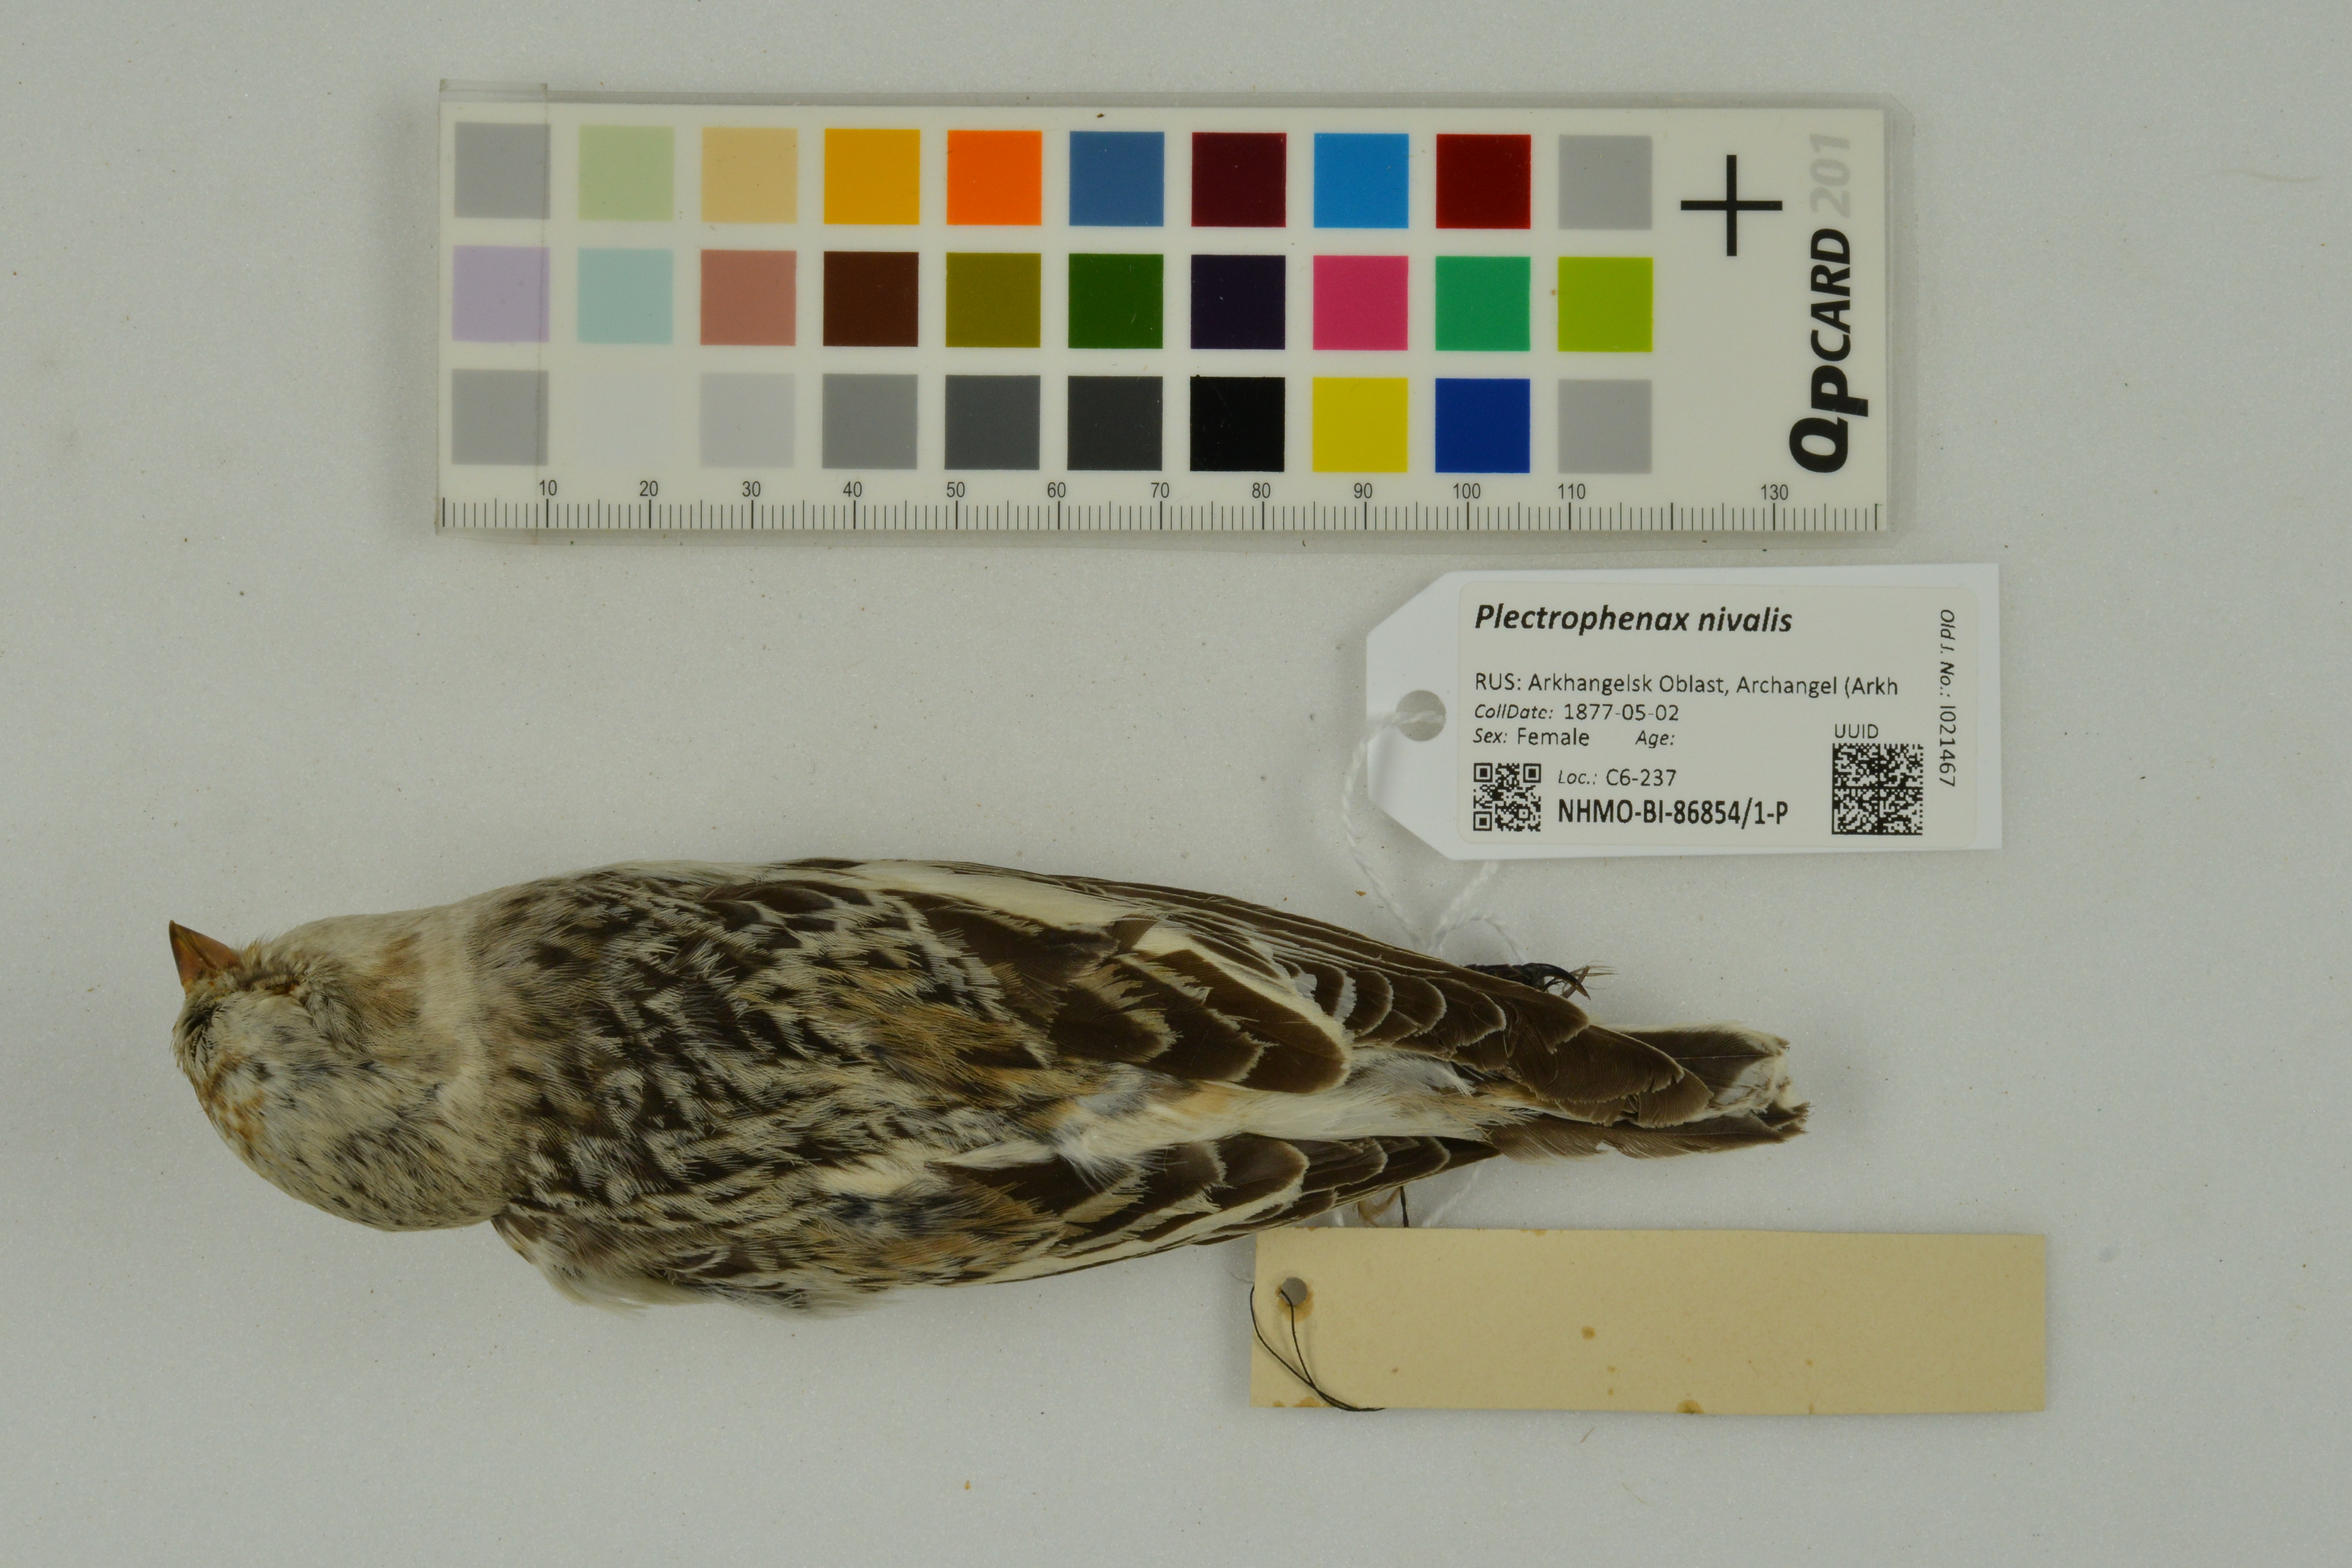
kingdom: Animalia
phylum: Chordata
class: Aves
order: Passeriformes
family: Calcariidae
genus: Plectrophenax
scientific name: Plectrophenax nivalis
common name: Snow bunting
